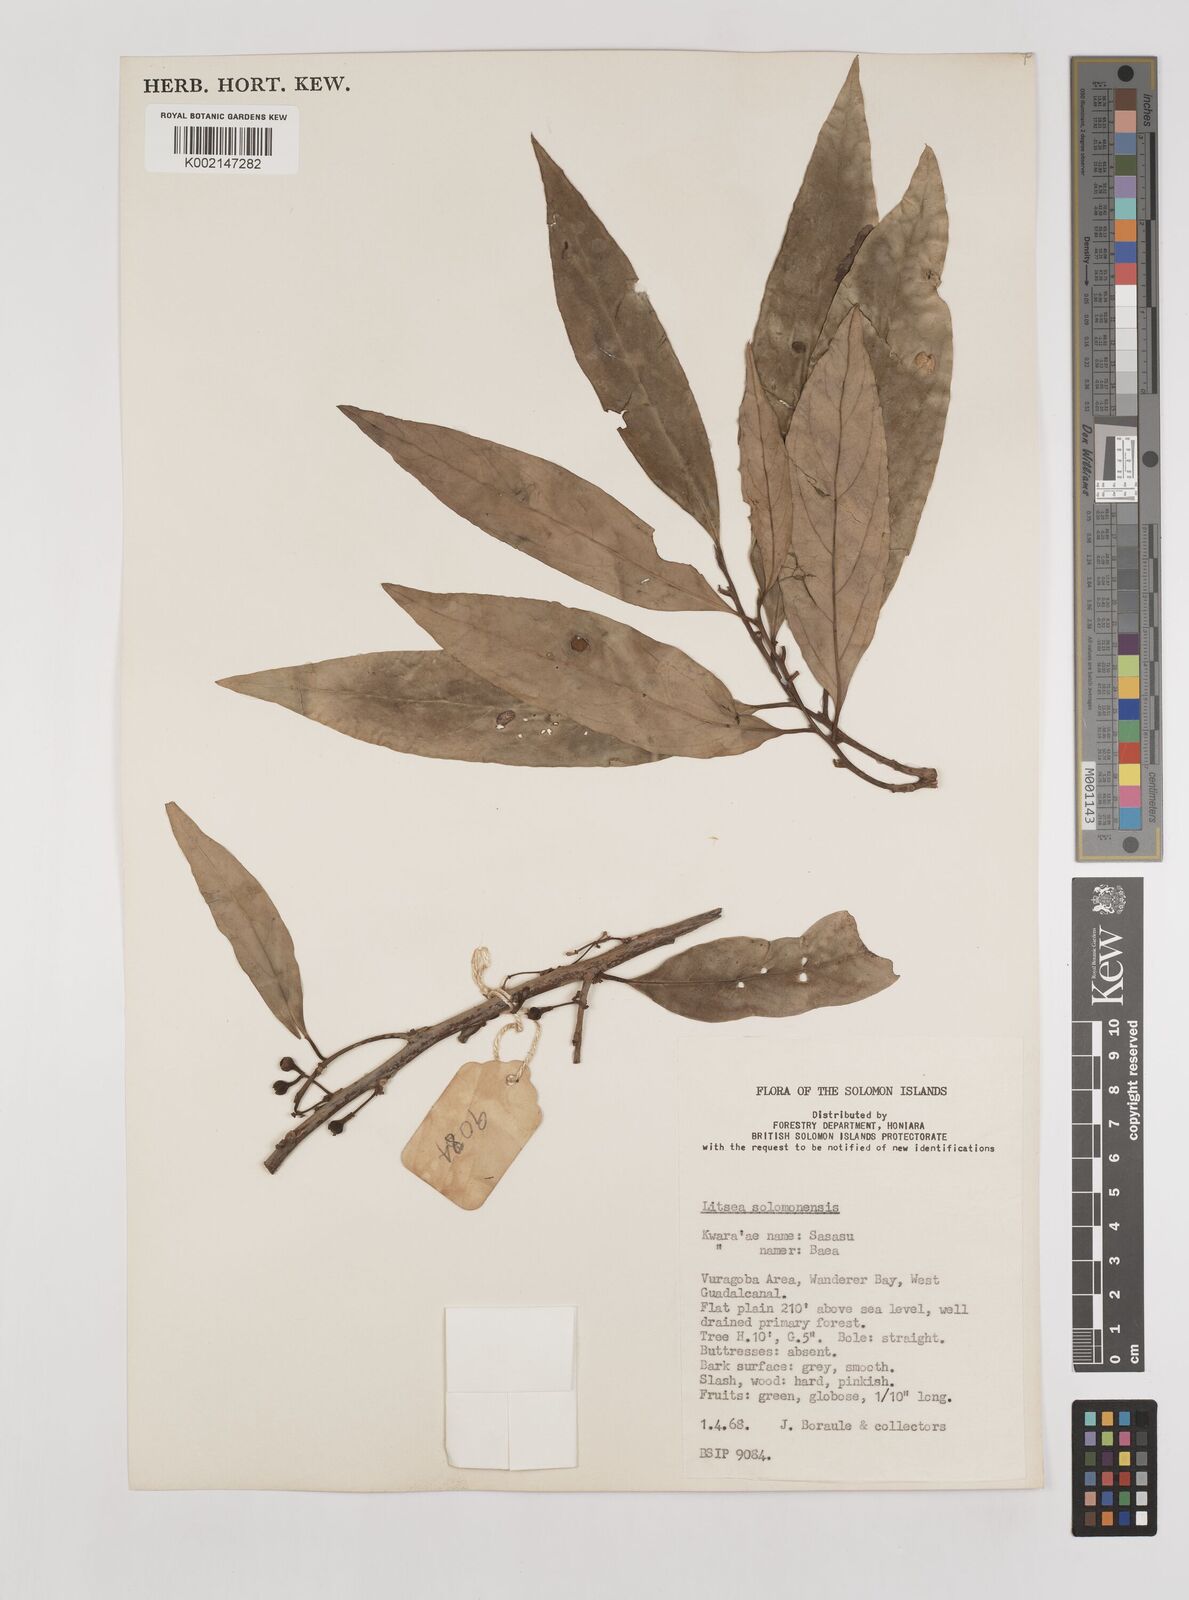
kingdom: Plantae
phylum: Tracheophyta
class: Magnoliopsida
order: Laurales
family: Lauraceae
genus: Litsea
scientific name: Litsea timoriana
